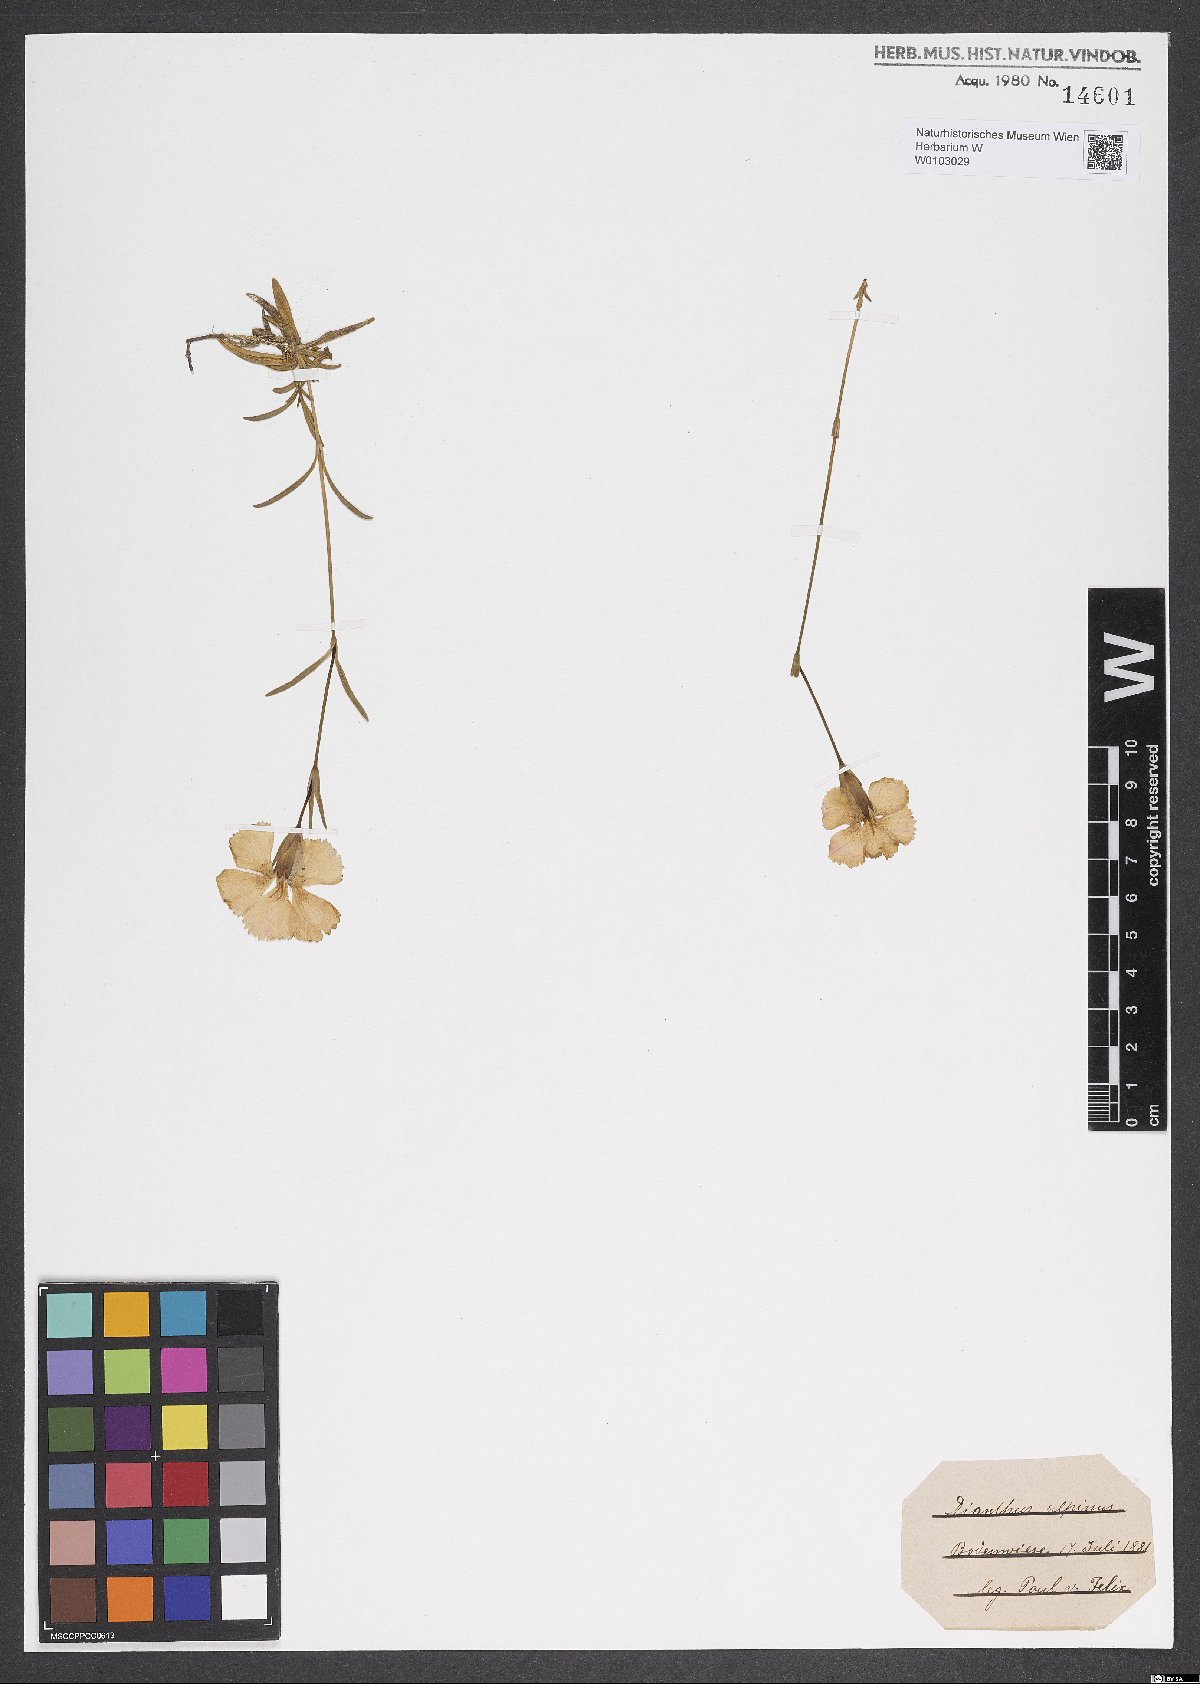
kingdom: Plantae
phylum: Tracheophyta
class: Magnoliopsida
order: Caryophyllales
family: Caryophyllaceae
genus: Dianthus
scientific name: Dianthus alpinus
